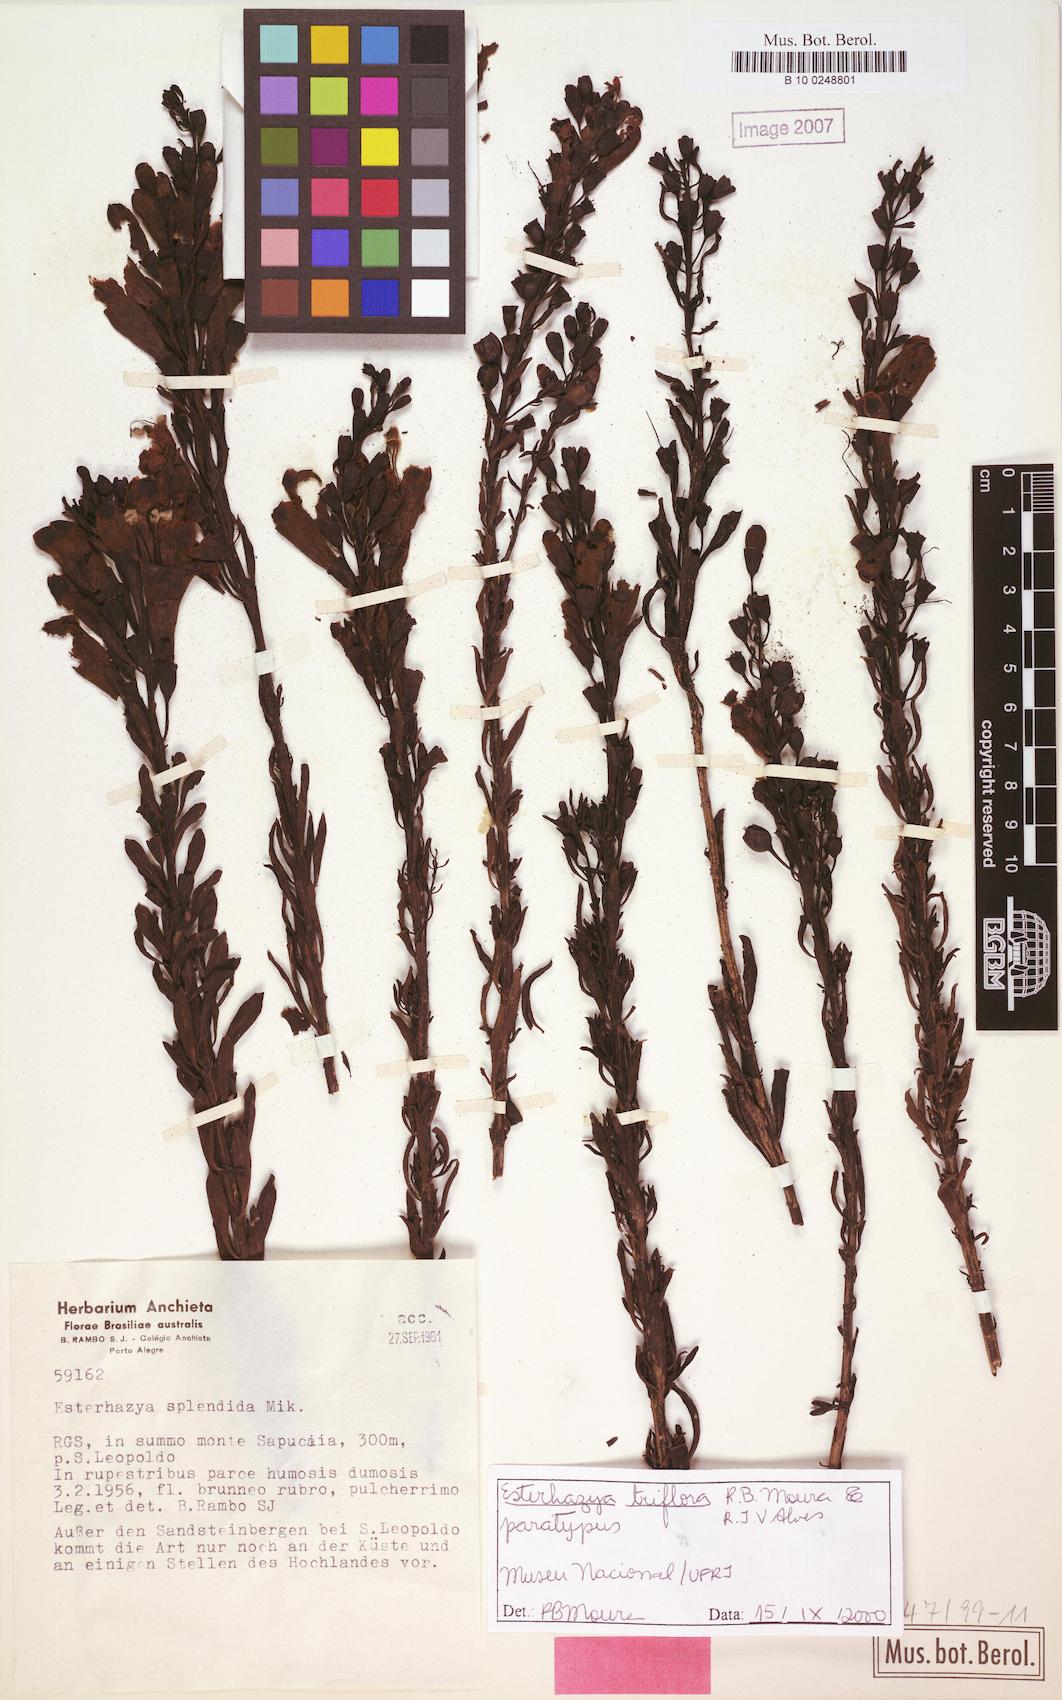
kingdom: Plantae
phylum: Tracheophyta
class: Magnoliopsida
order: Lamiales
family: Orobanchaceae
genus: Esterhazya
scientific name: Esterhazya triflora
